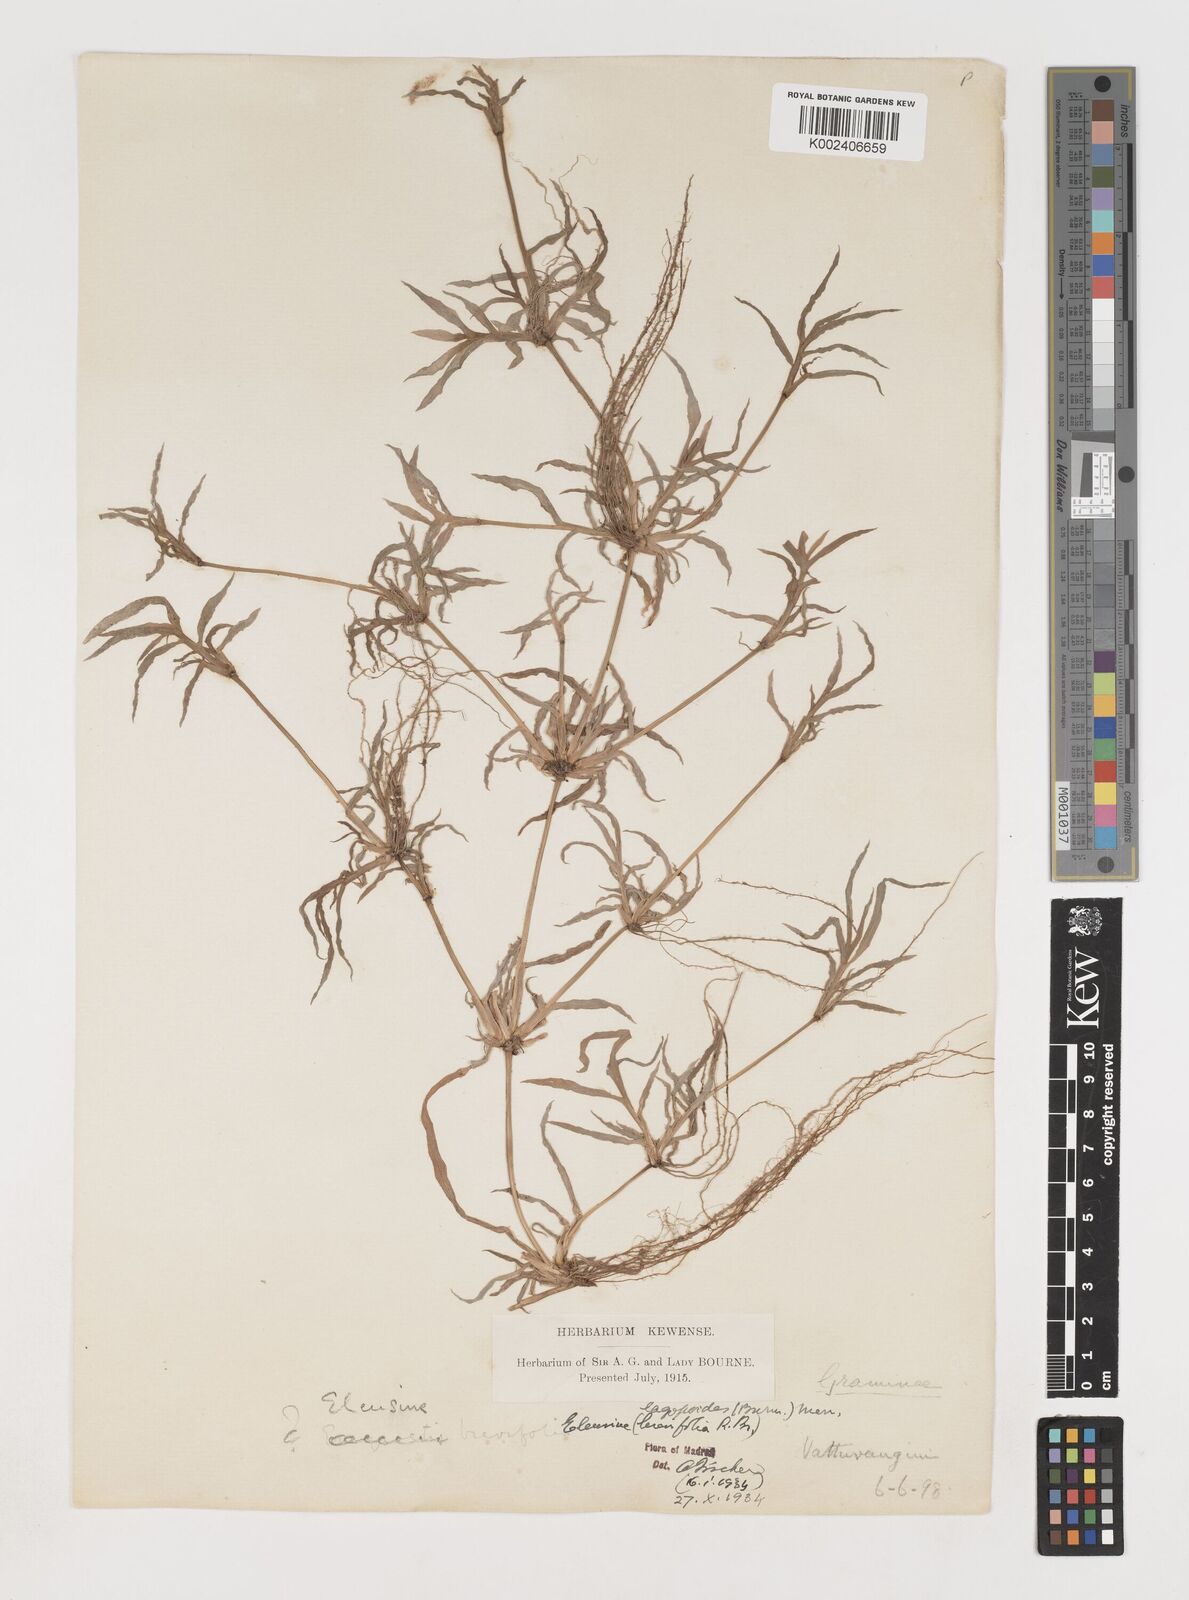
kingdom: Plantae
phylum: Tracheophyta
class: Liliopsida
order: Poales
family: Poaceae
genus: Coelachyrum
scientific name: Coelachyrum lagopoides
